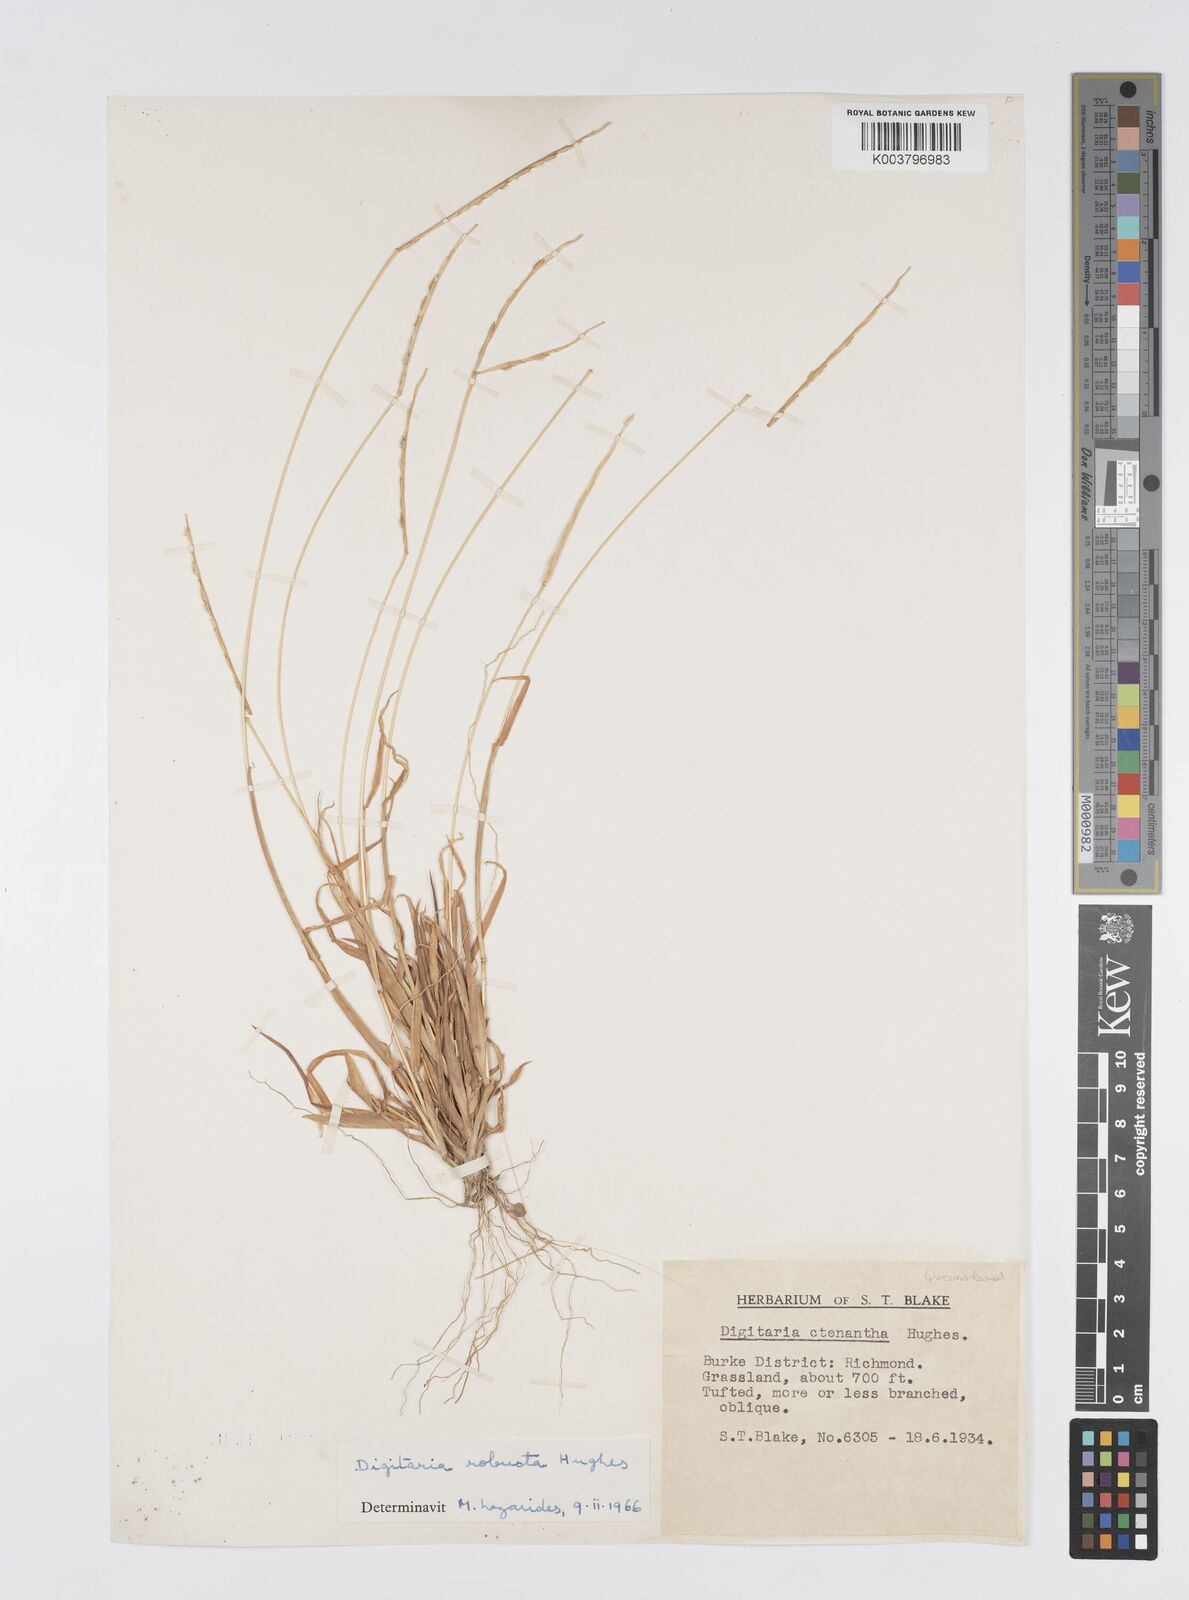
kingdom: Plantae
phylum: Tracheophyta
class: Liliopsida
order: Poales
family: Poaceae
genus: Digitaria
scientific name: Digitaria ctenantha
